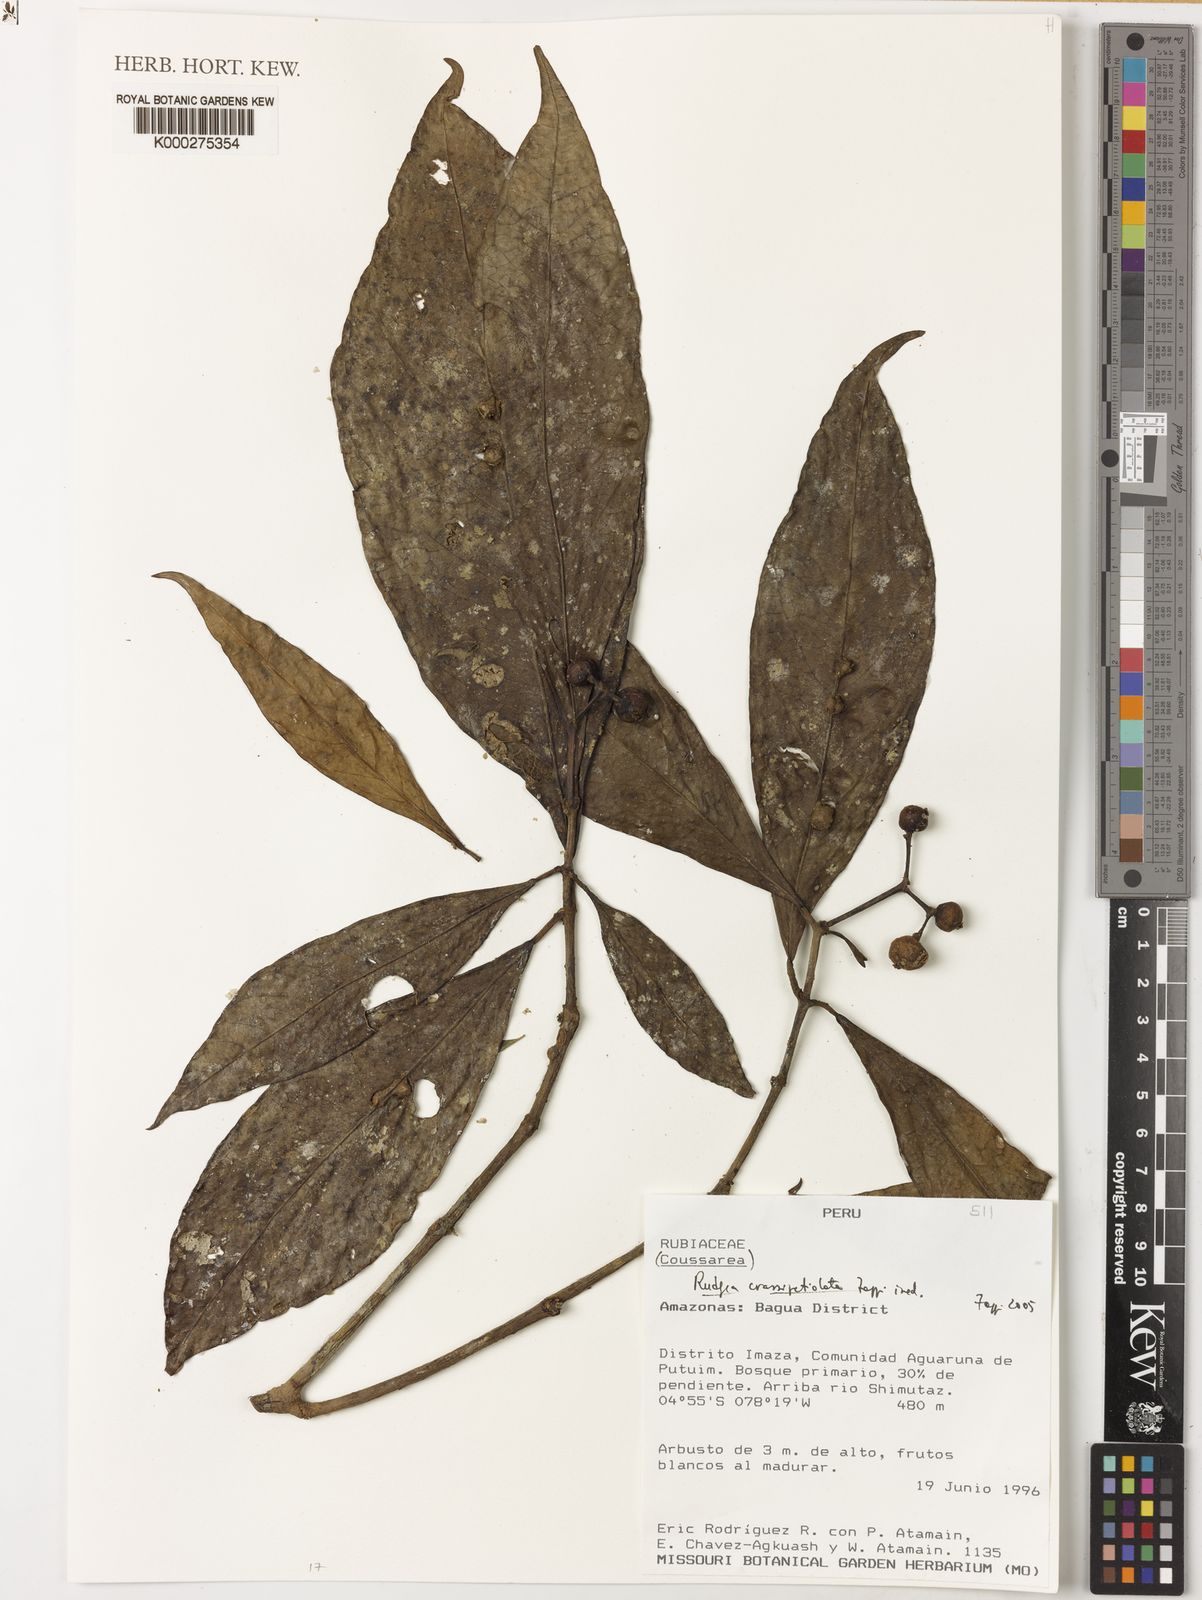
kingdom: Plantae
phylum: Tracheophyta
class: Magnoliopsida
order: Gentianales
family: Rubiaceae
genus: Rudgea
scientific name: Rudgea crassipetiolata
